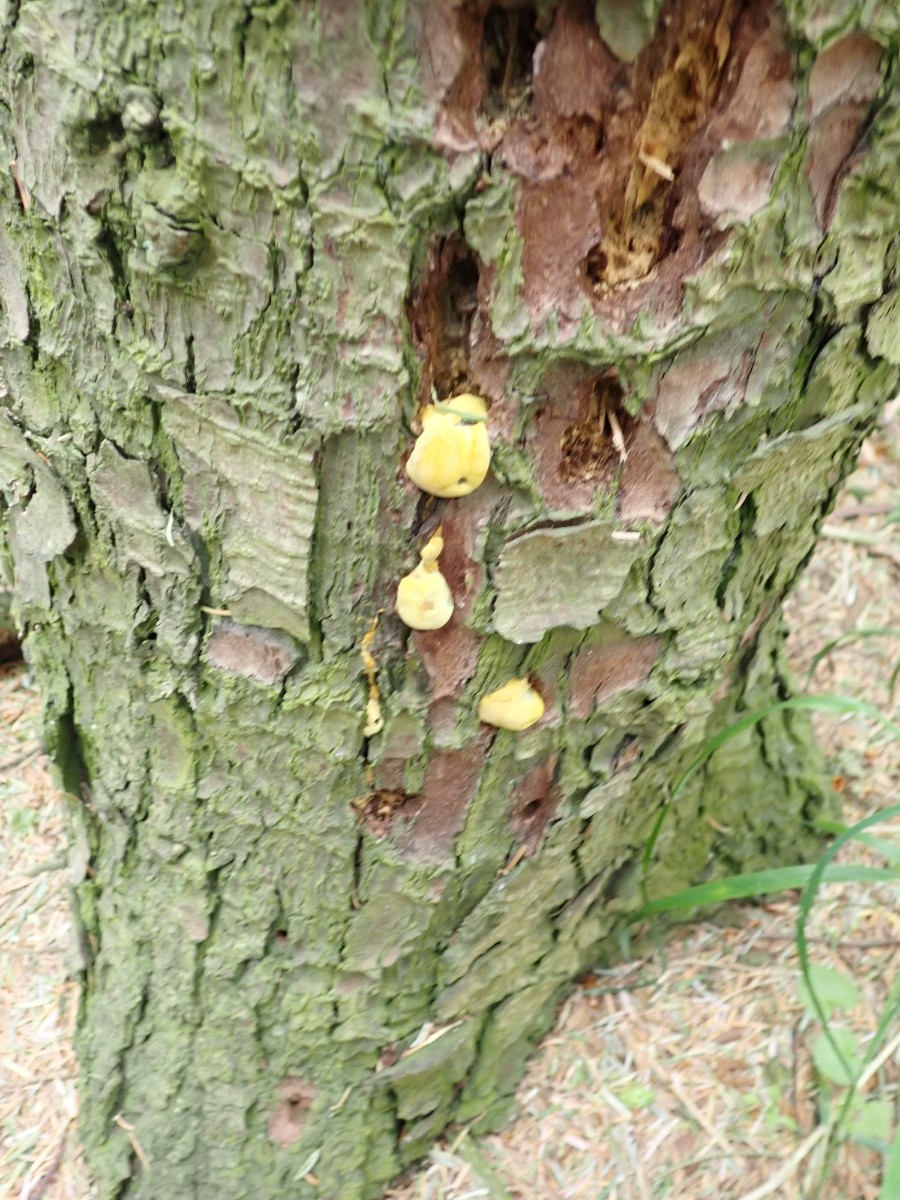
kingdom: Fungi
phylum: Basidiomycota
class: Agaricomycetes
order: Polyporales
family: Laetiporaceae
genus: Phaeolus
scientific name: Phaeolus schweinitzii
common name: brunporesvamp
